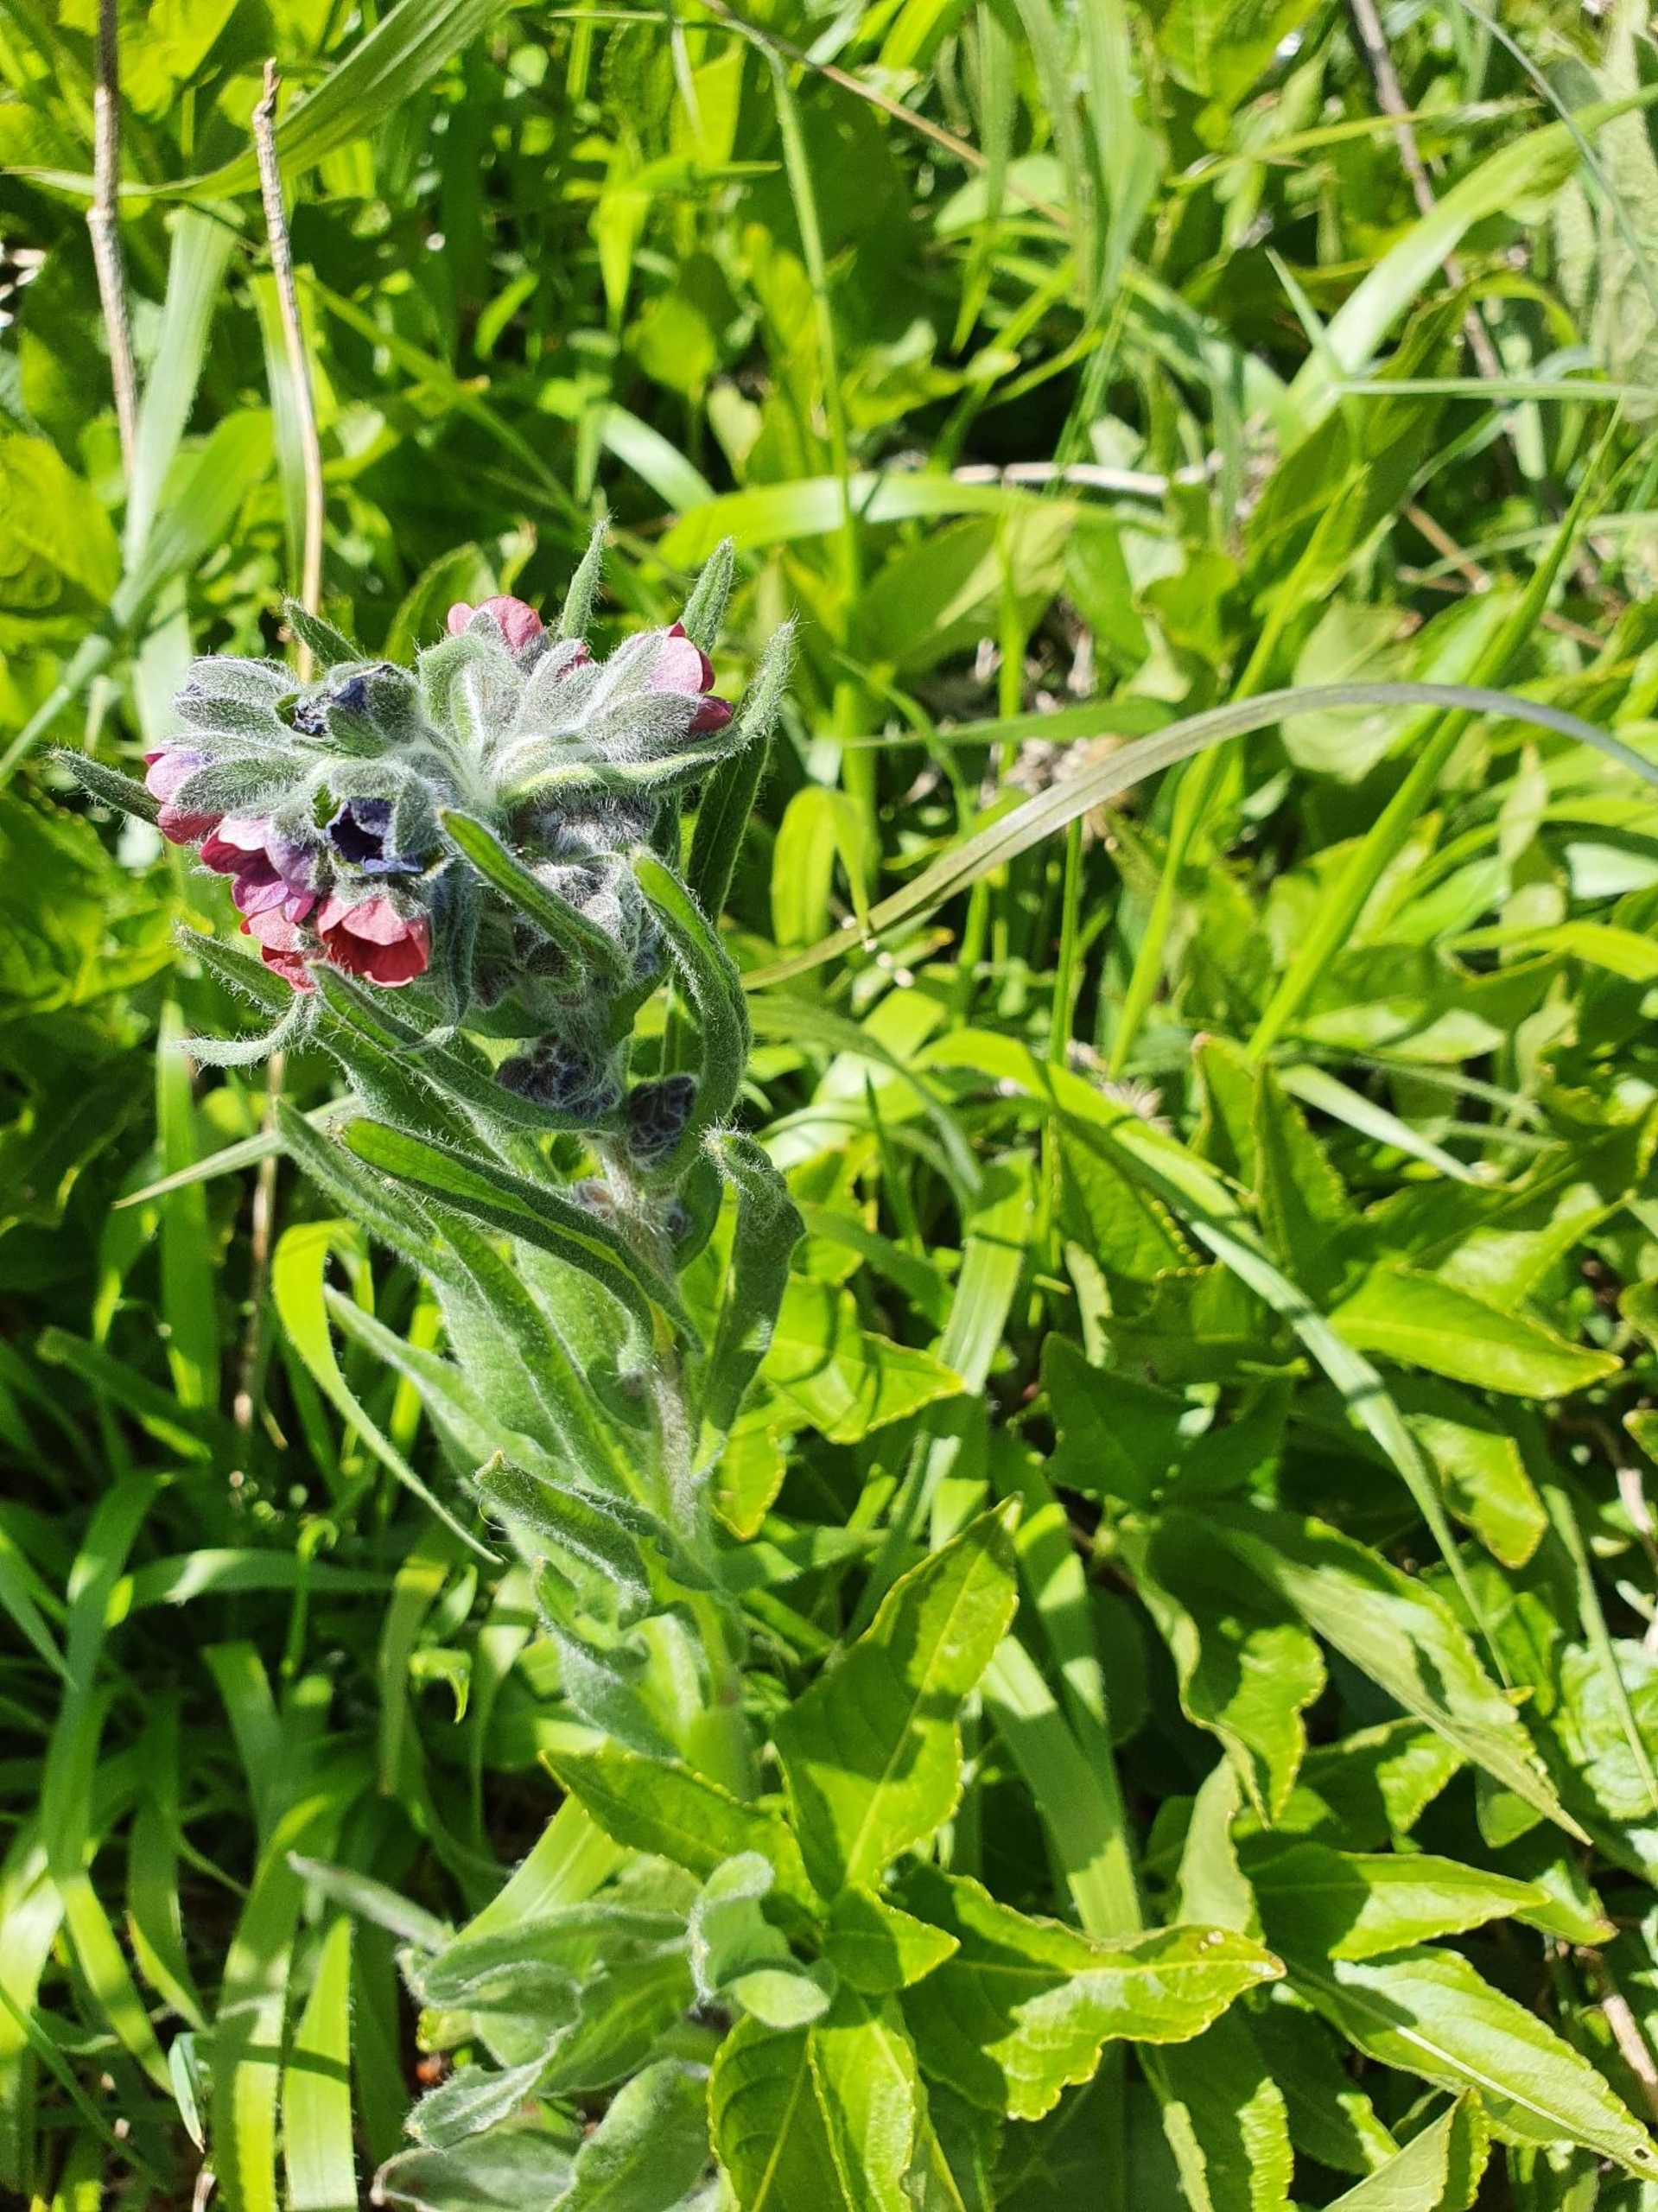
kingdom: Plantae
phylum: Tracheophyta
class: Magnoliopsida
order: Boraginales
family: Boraginaceae
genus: Cynoglossum
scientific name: Cynoglossum officinale
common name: Hundetunge
